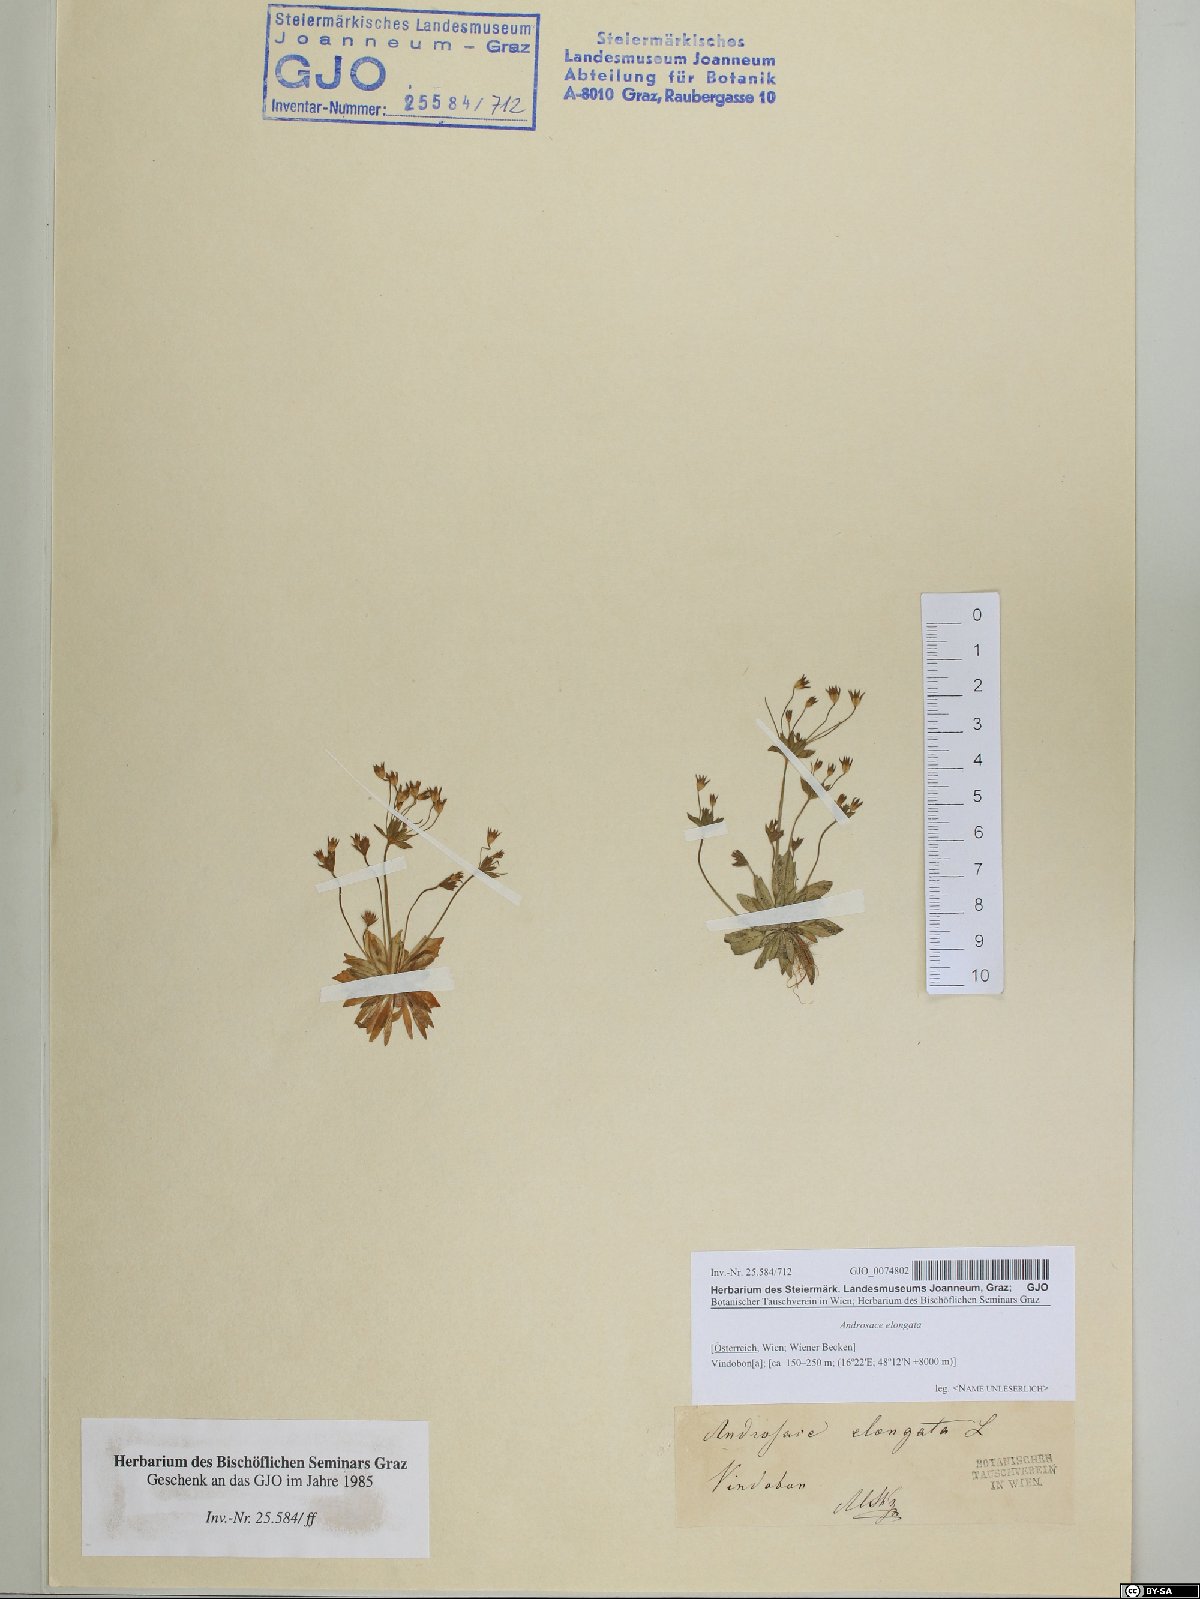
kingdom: Plantae
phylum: Tracheophyta
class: Magnoliopsida
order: Ericales
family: Primulaceae
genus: Androsace
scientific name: Androsace elongata
